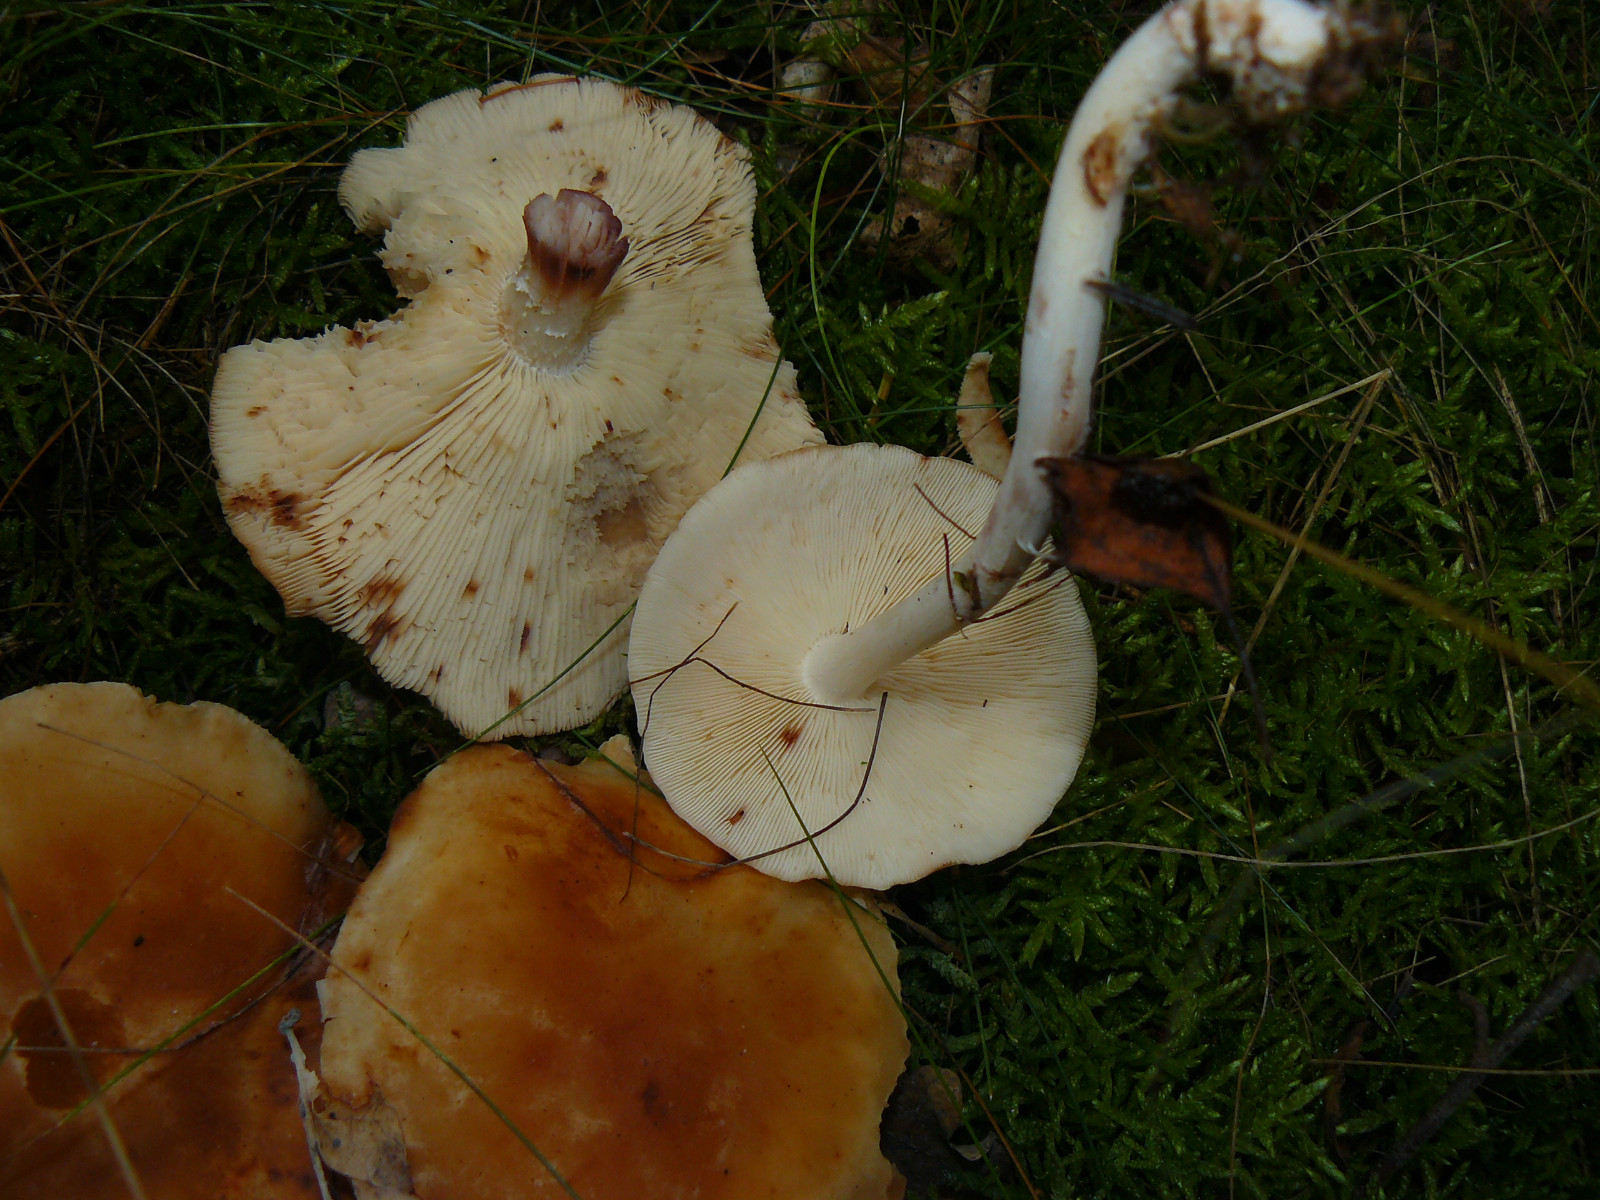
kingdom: Fungi
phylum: Basidiomycota
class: Agaricomycetes
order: Agaricales
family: Omphalotaceae
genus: Rhodocollybia
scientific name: Rhodocollybia maculata
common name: plettet fladhat
